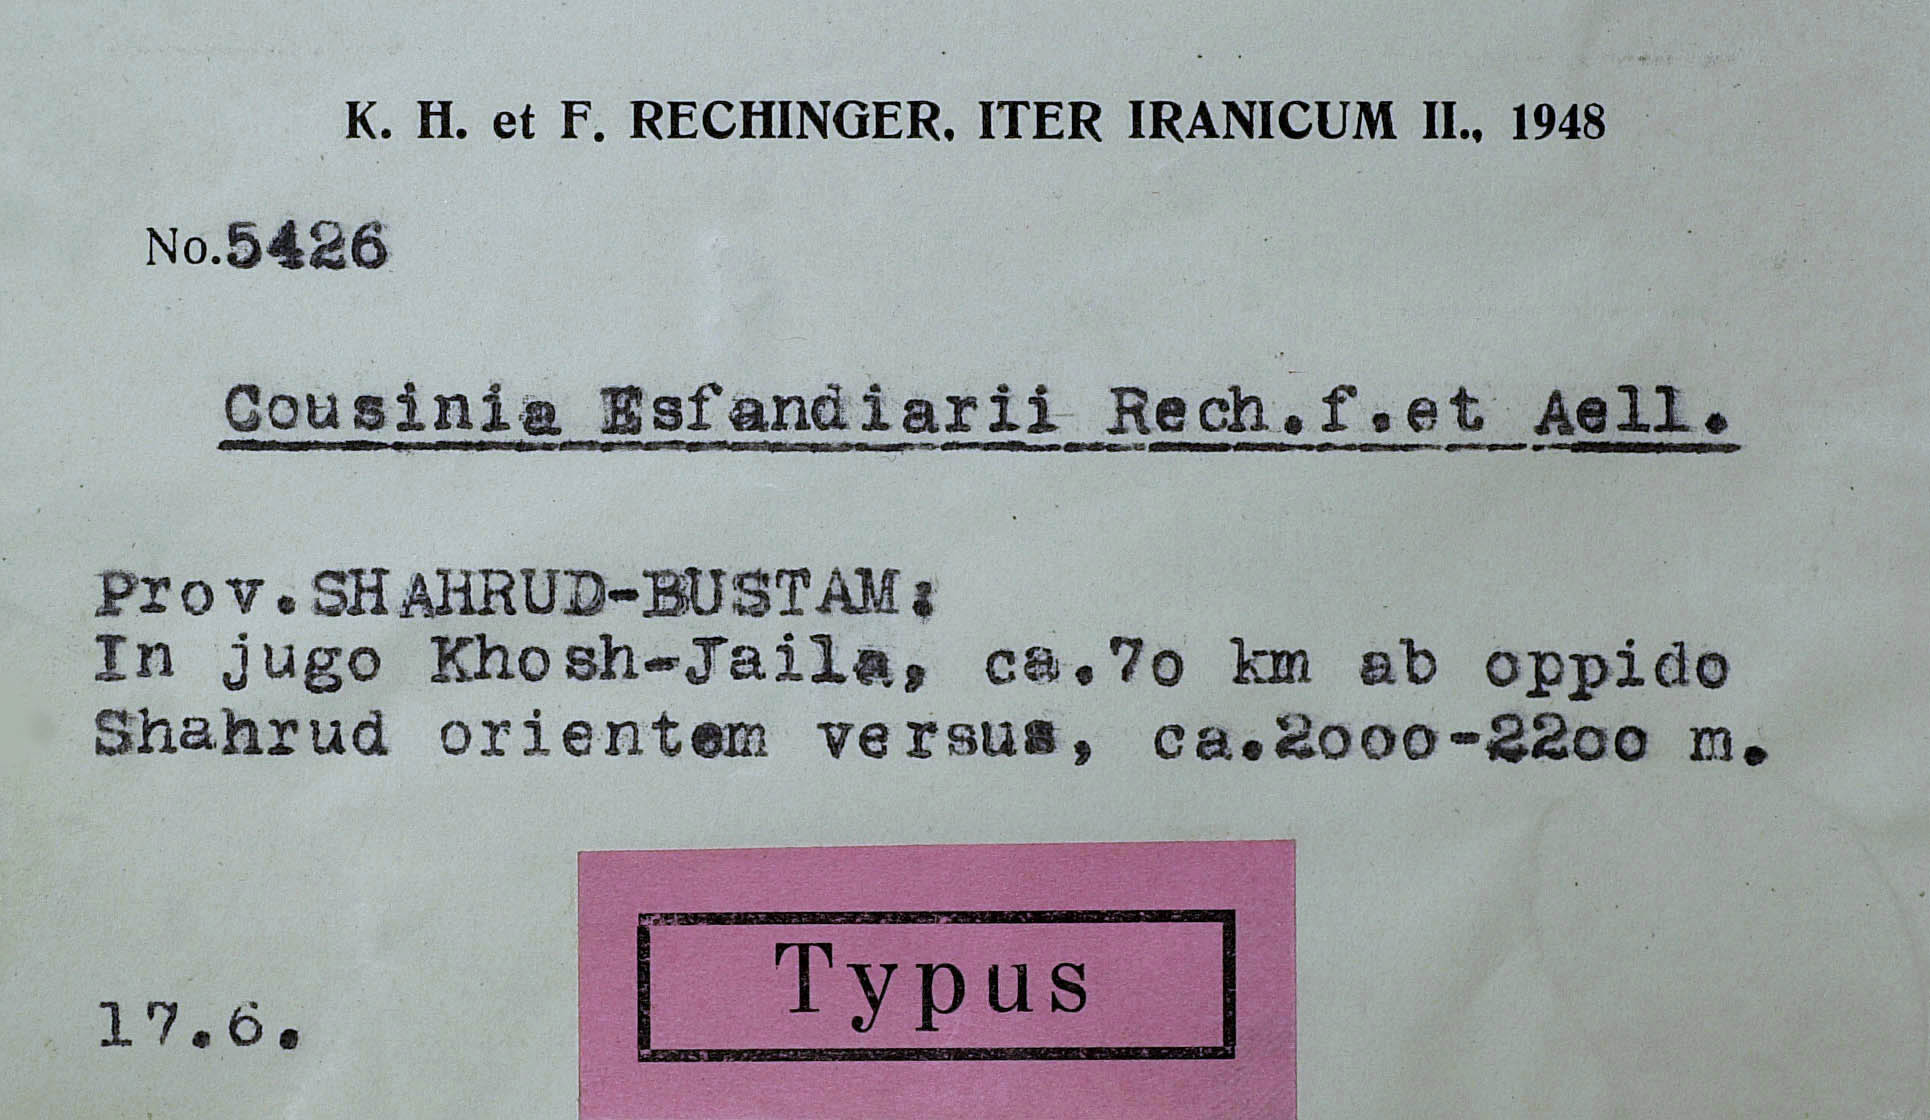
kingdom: Plantae
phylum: Tracheophyta
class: Magnoliopsida
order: Asterales
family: Asteraceae
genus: Cousinia
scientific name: Cousinia esfandiarii
